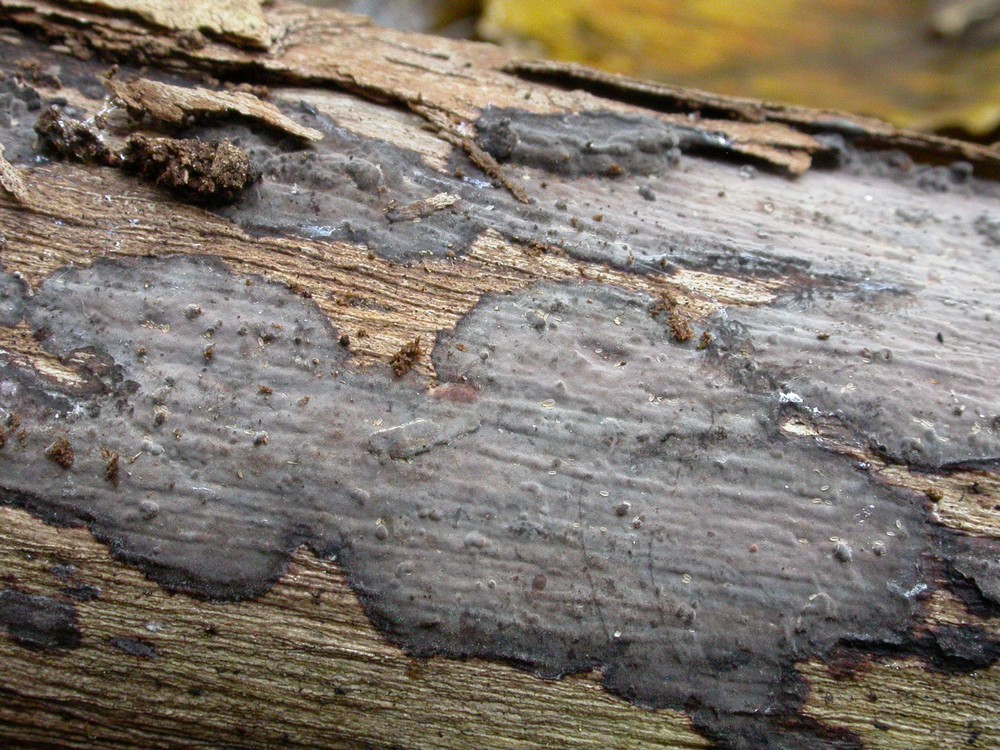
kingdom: Fungi
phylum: Basidiomycota
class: Agaricomycetes
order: Russulales
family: Peniophoraceae
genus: Peniophora
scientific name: Peniophora limitata
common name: mørkrandet voksskind
